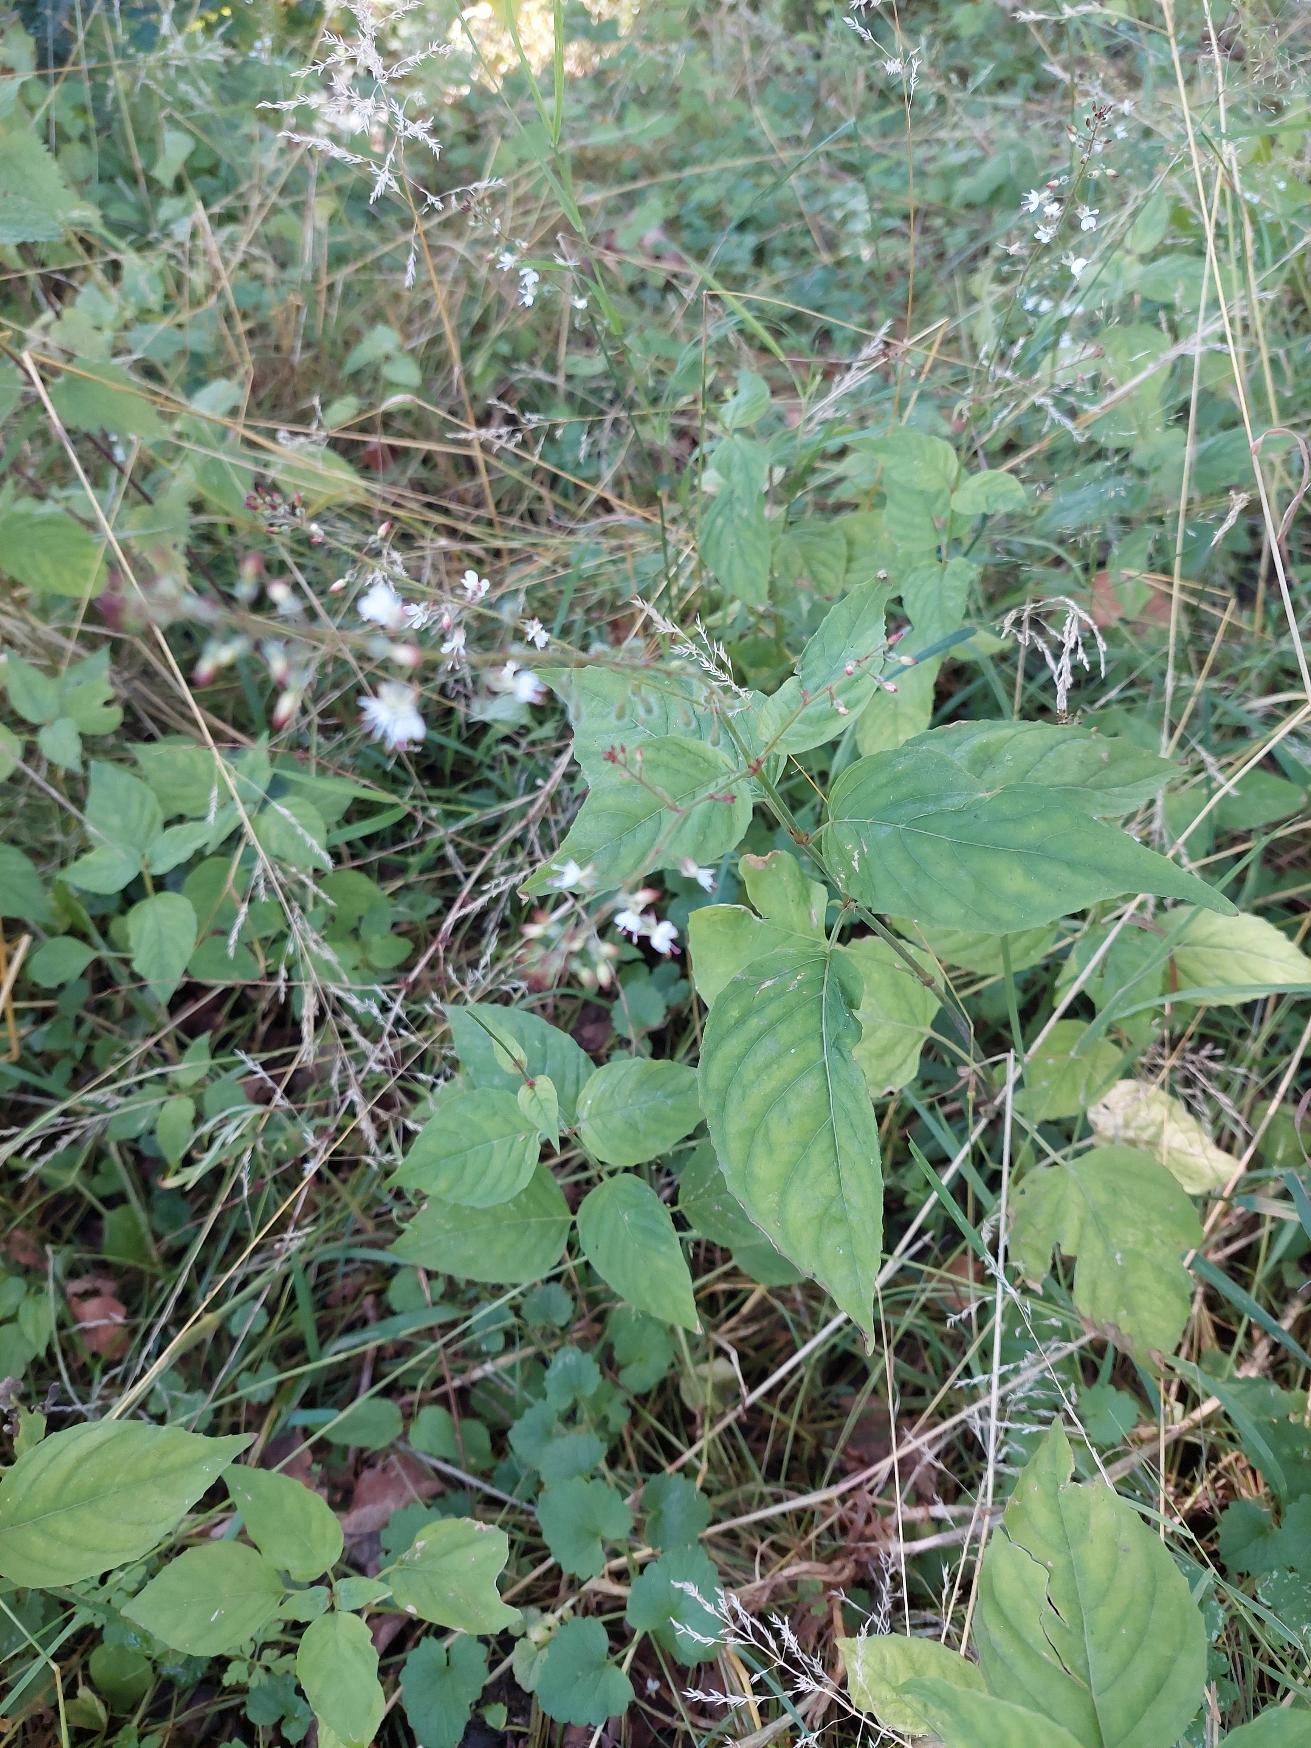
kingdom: Plantae
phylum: Tracheophyta
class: Magnoliopsida
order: Myrtales
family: Onagraceae
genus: Circaea
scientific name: Circaea lutetiana
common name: Dunet steffensurt
